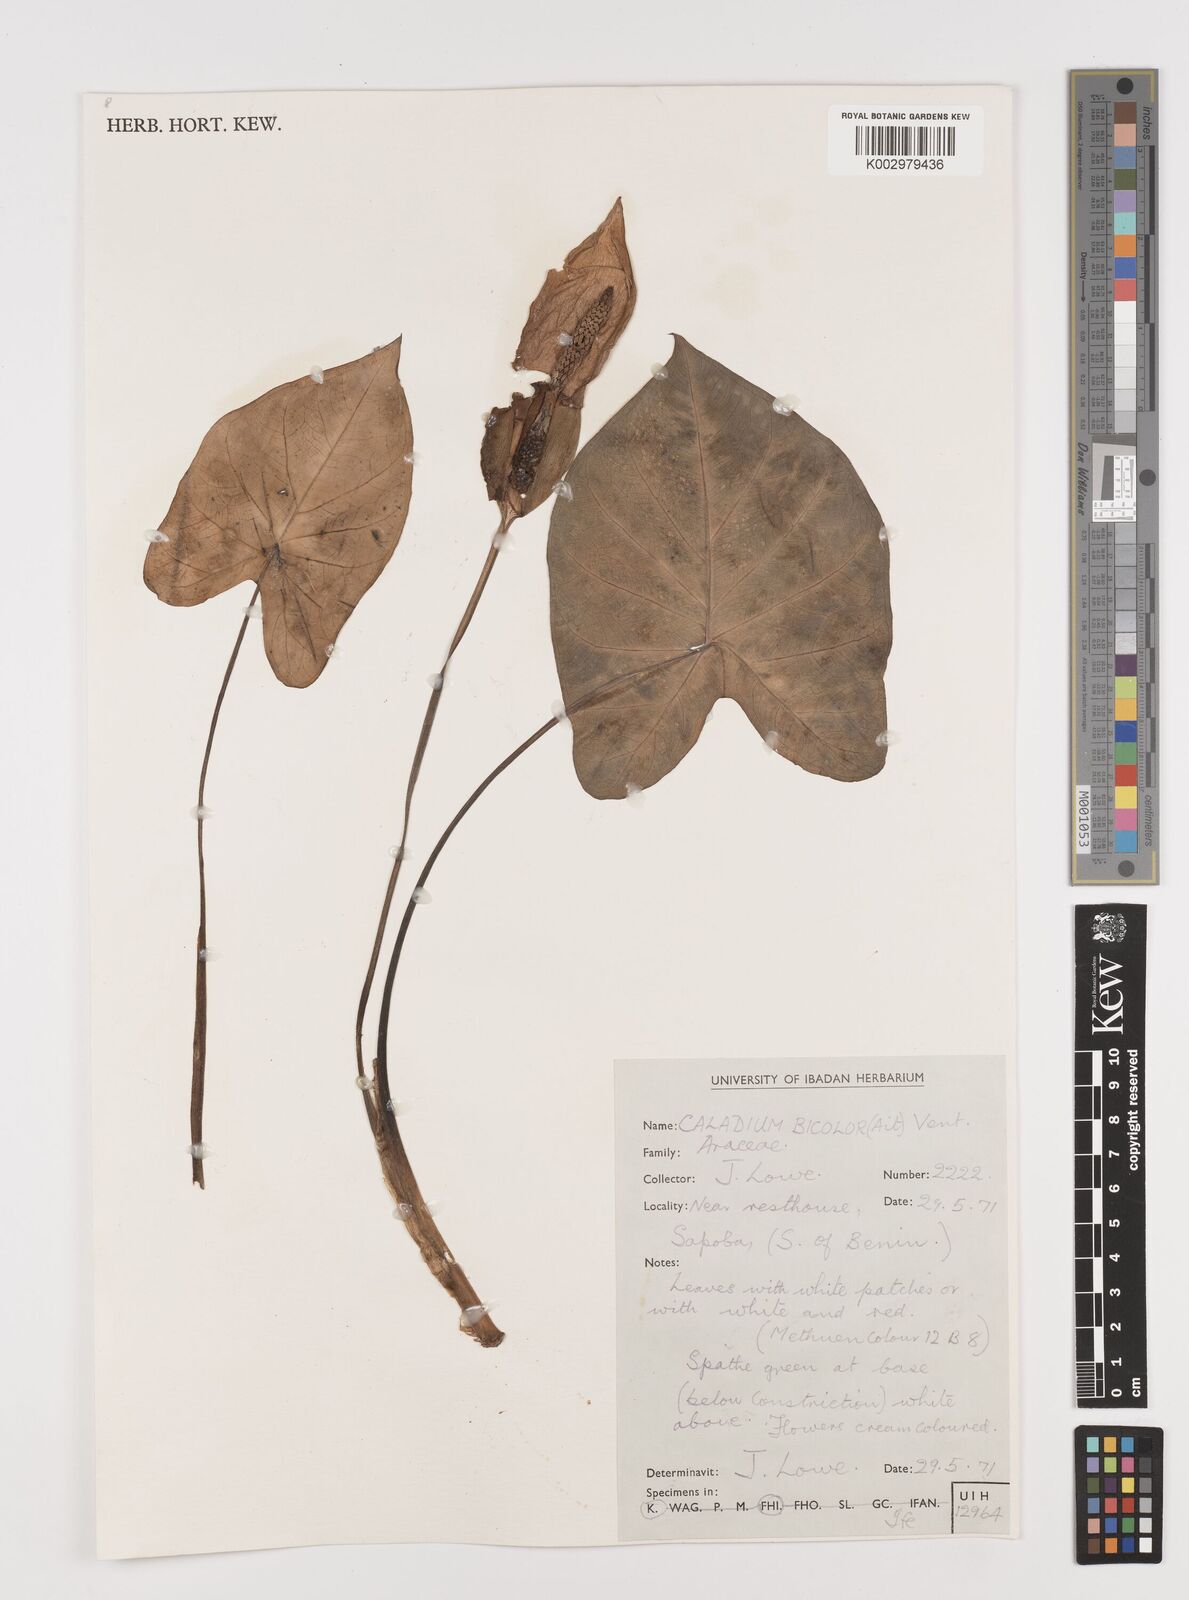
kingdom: Plantae
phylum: Tracheophyta
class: Liliopsida
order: Alismatales
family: Araceae
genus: Caladium
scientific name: Caladium bicolor
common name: Artist's pallet
